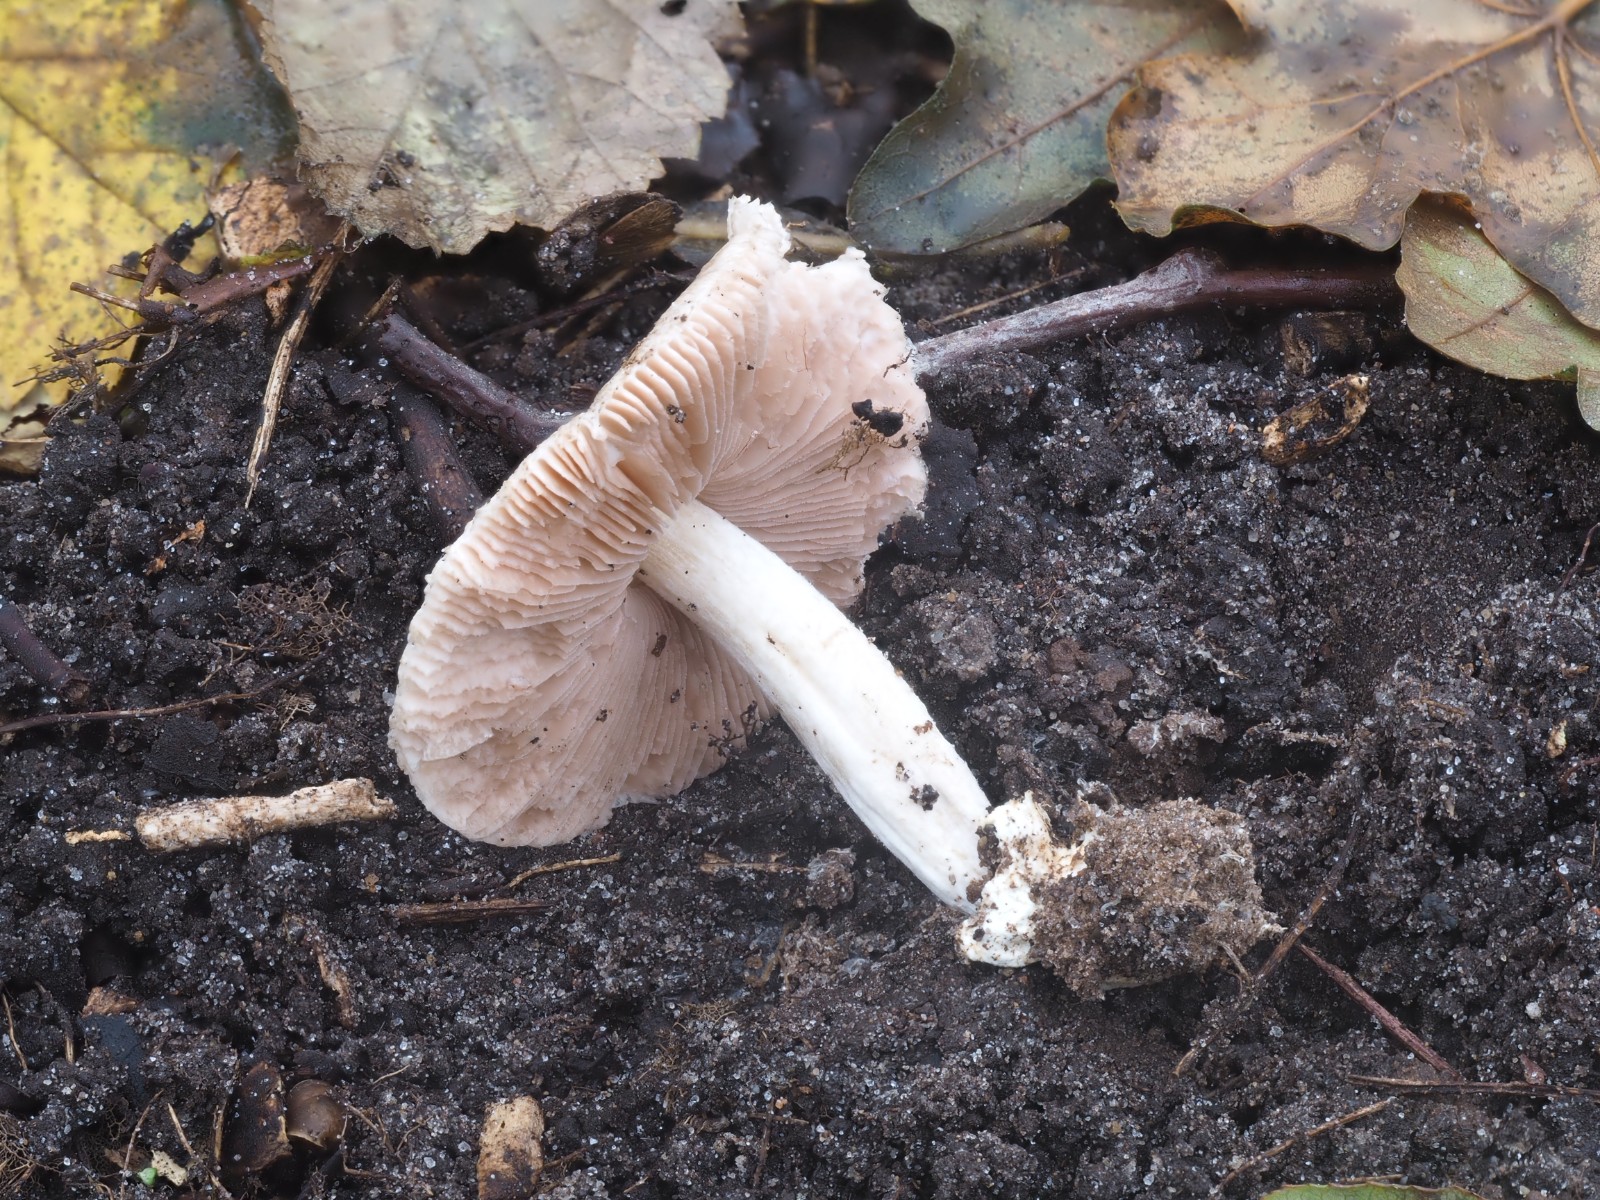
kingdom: Fungi
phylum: Basidiomycota
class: Agaricomycetes
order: Agaricales
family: Pluteaceae
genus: Volvariella
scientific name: Volvariella murinella
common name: musegrå posesvamp
